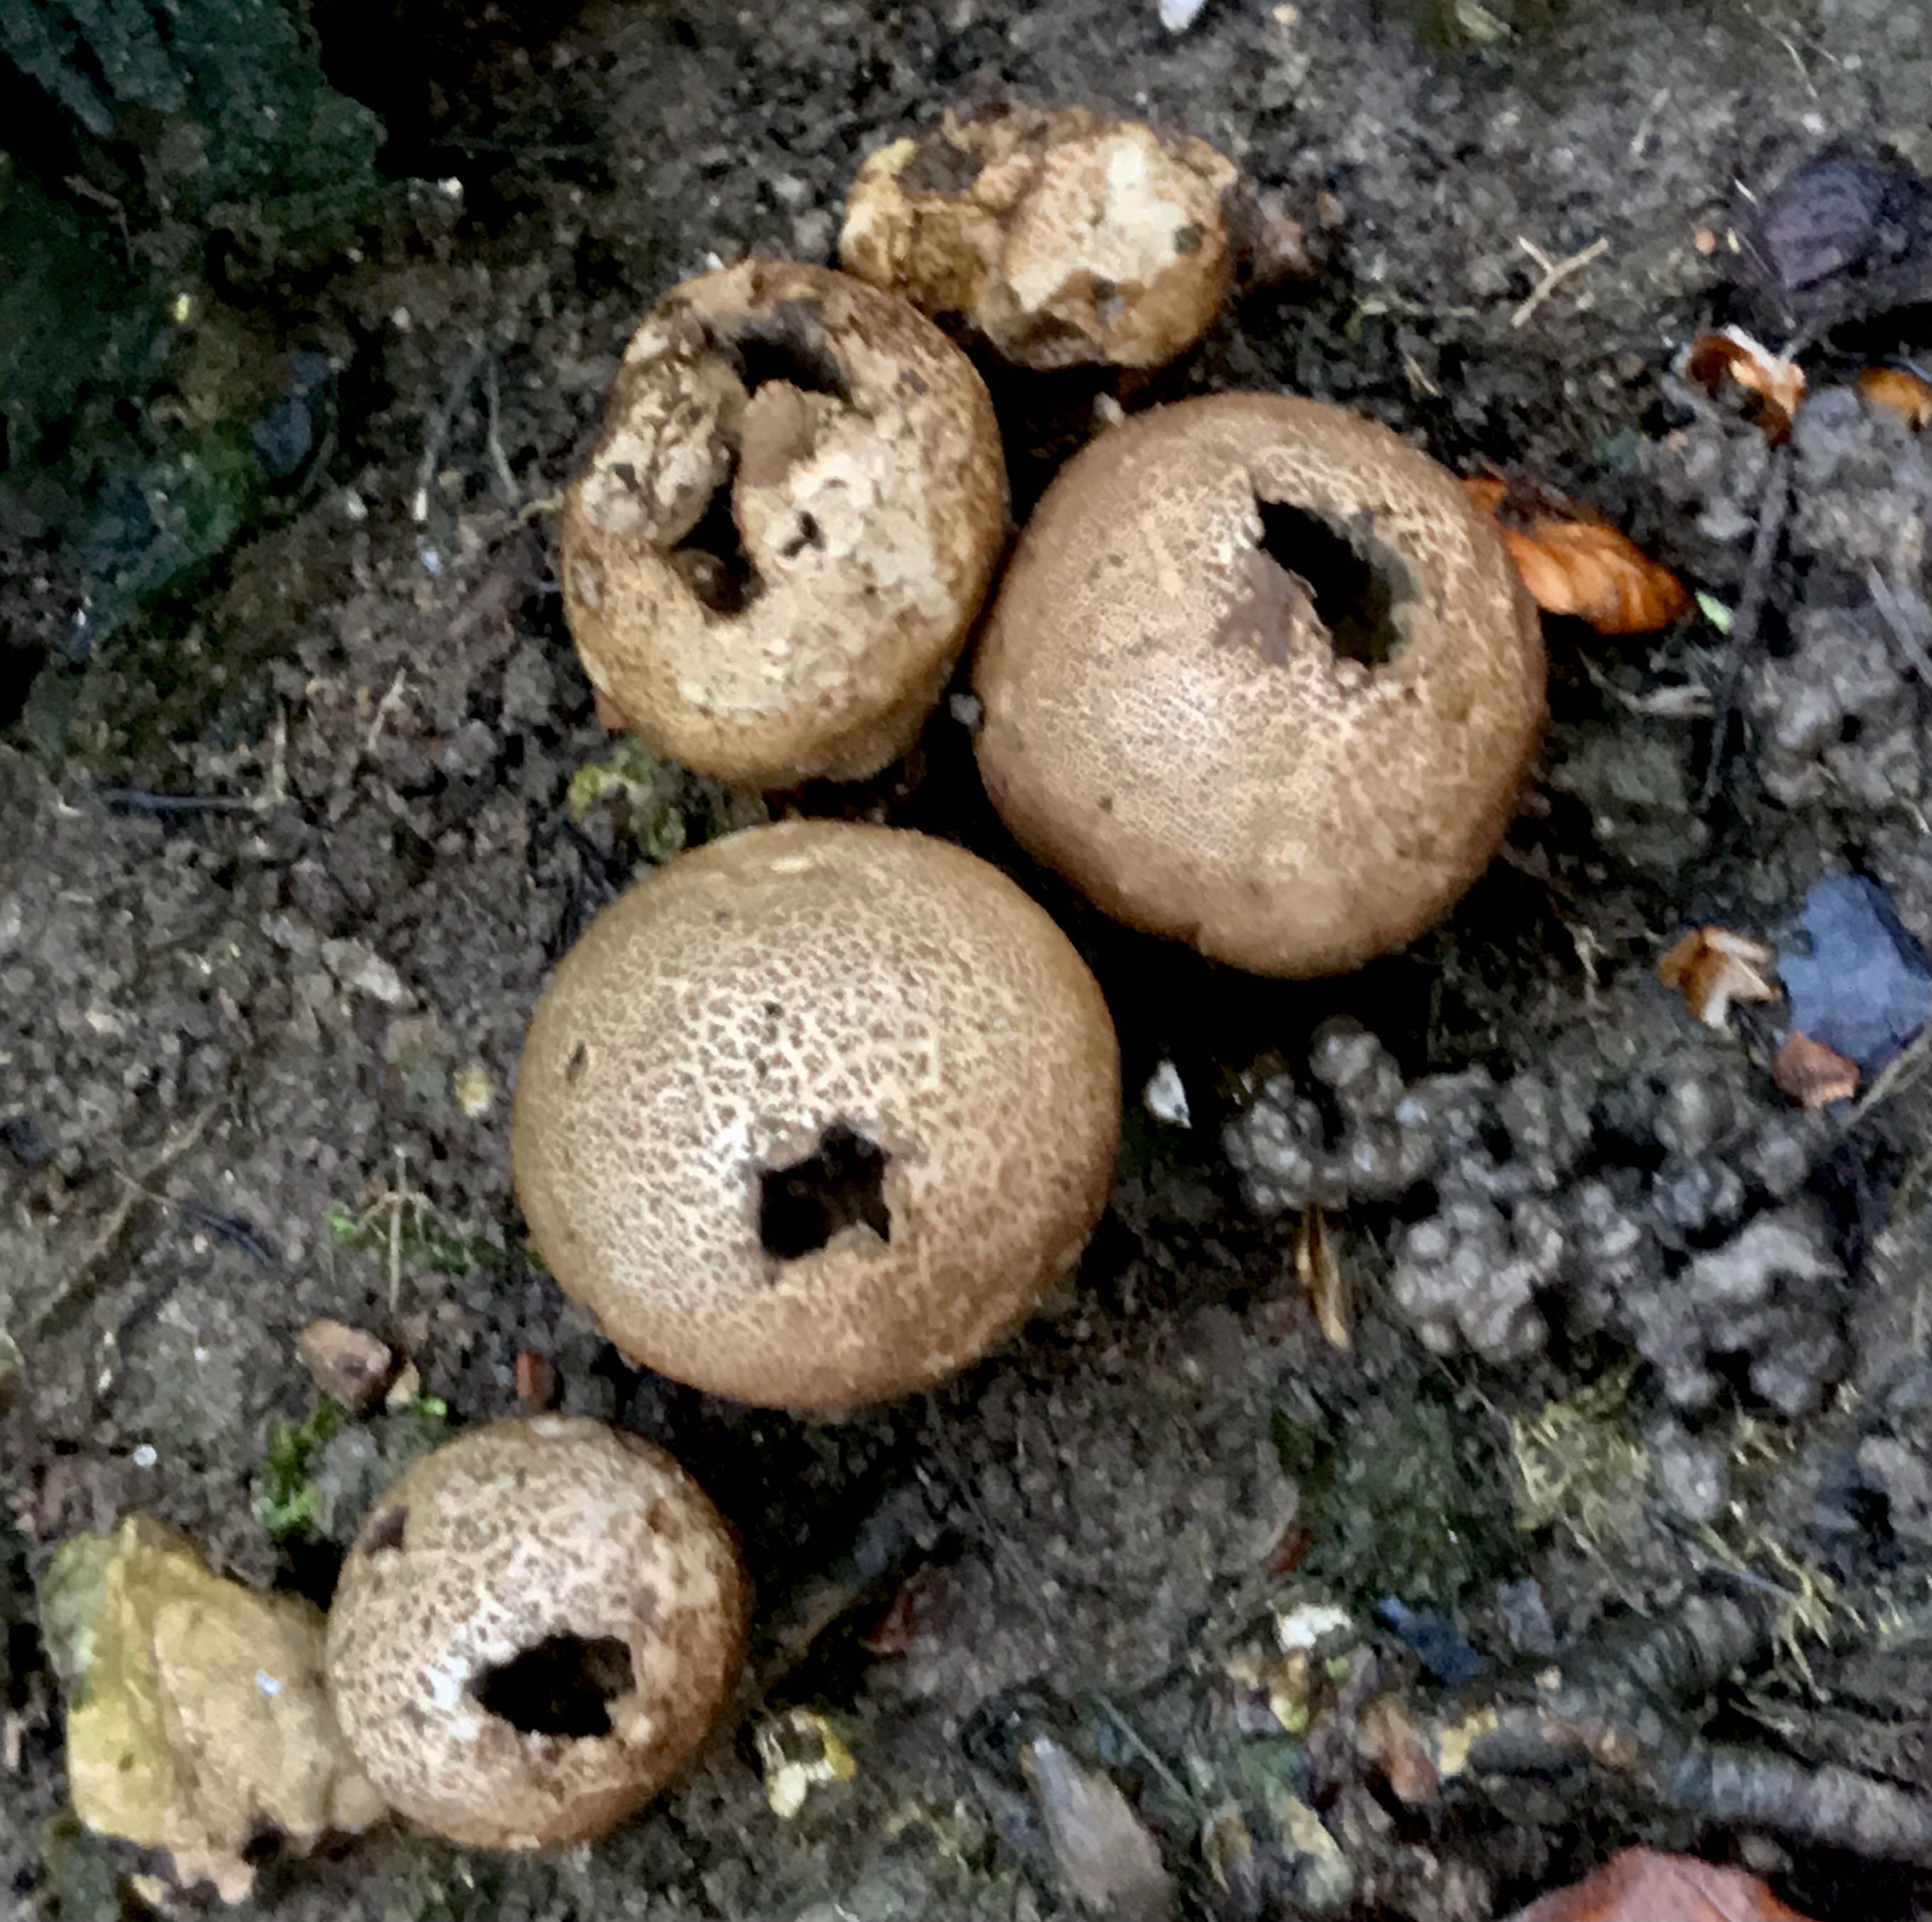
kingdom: Fungi
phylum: Basidiomycota
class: Agaricomycetes
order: Agaricales
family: Lycoperdaceae
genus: Apioperdon
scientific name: Apioperdon pyriforme
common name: pære-støvbold
